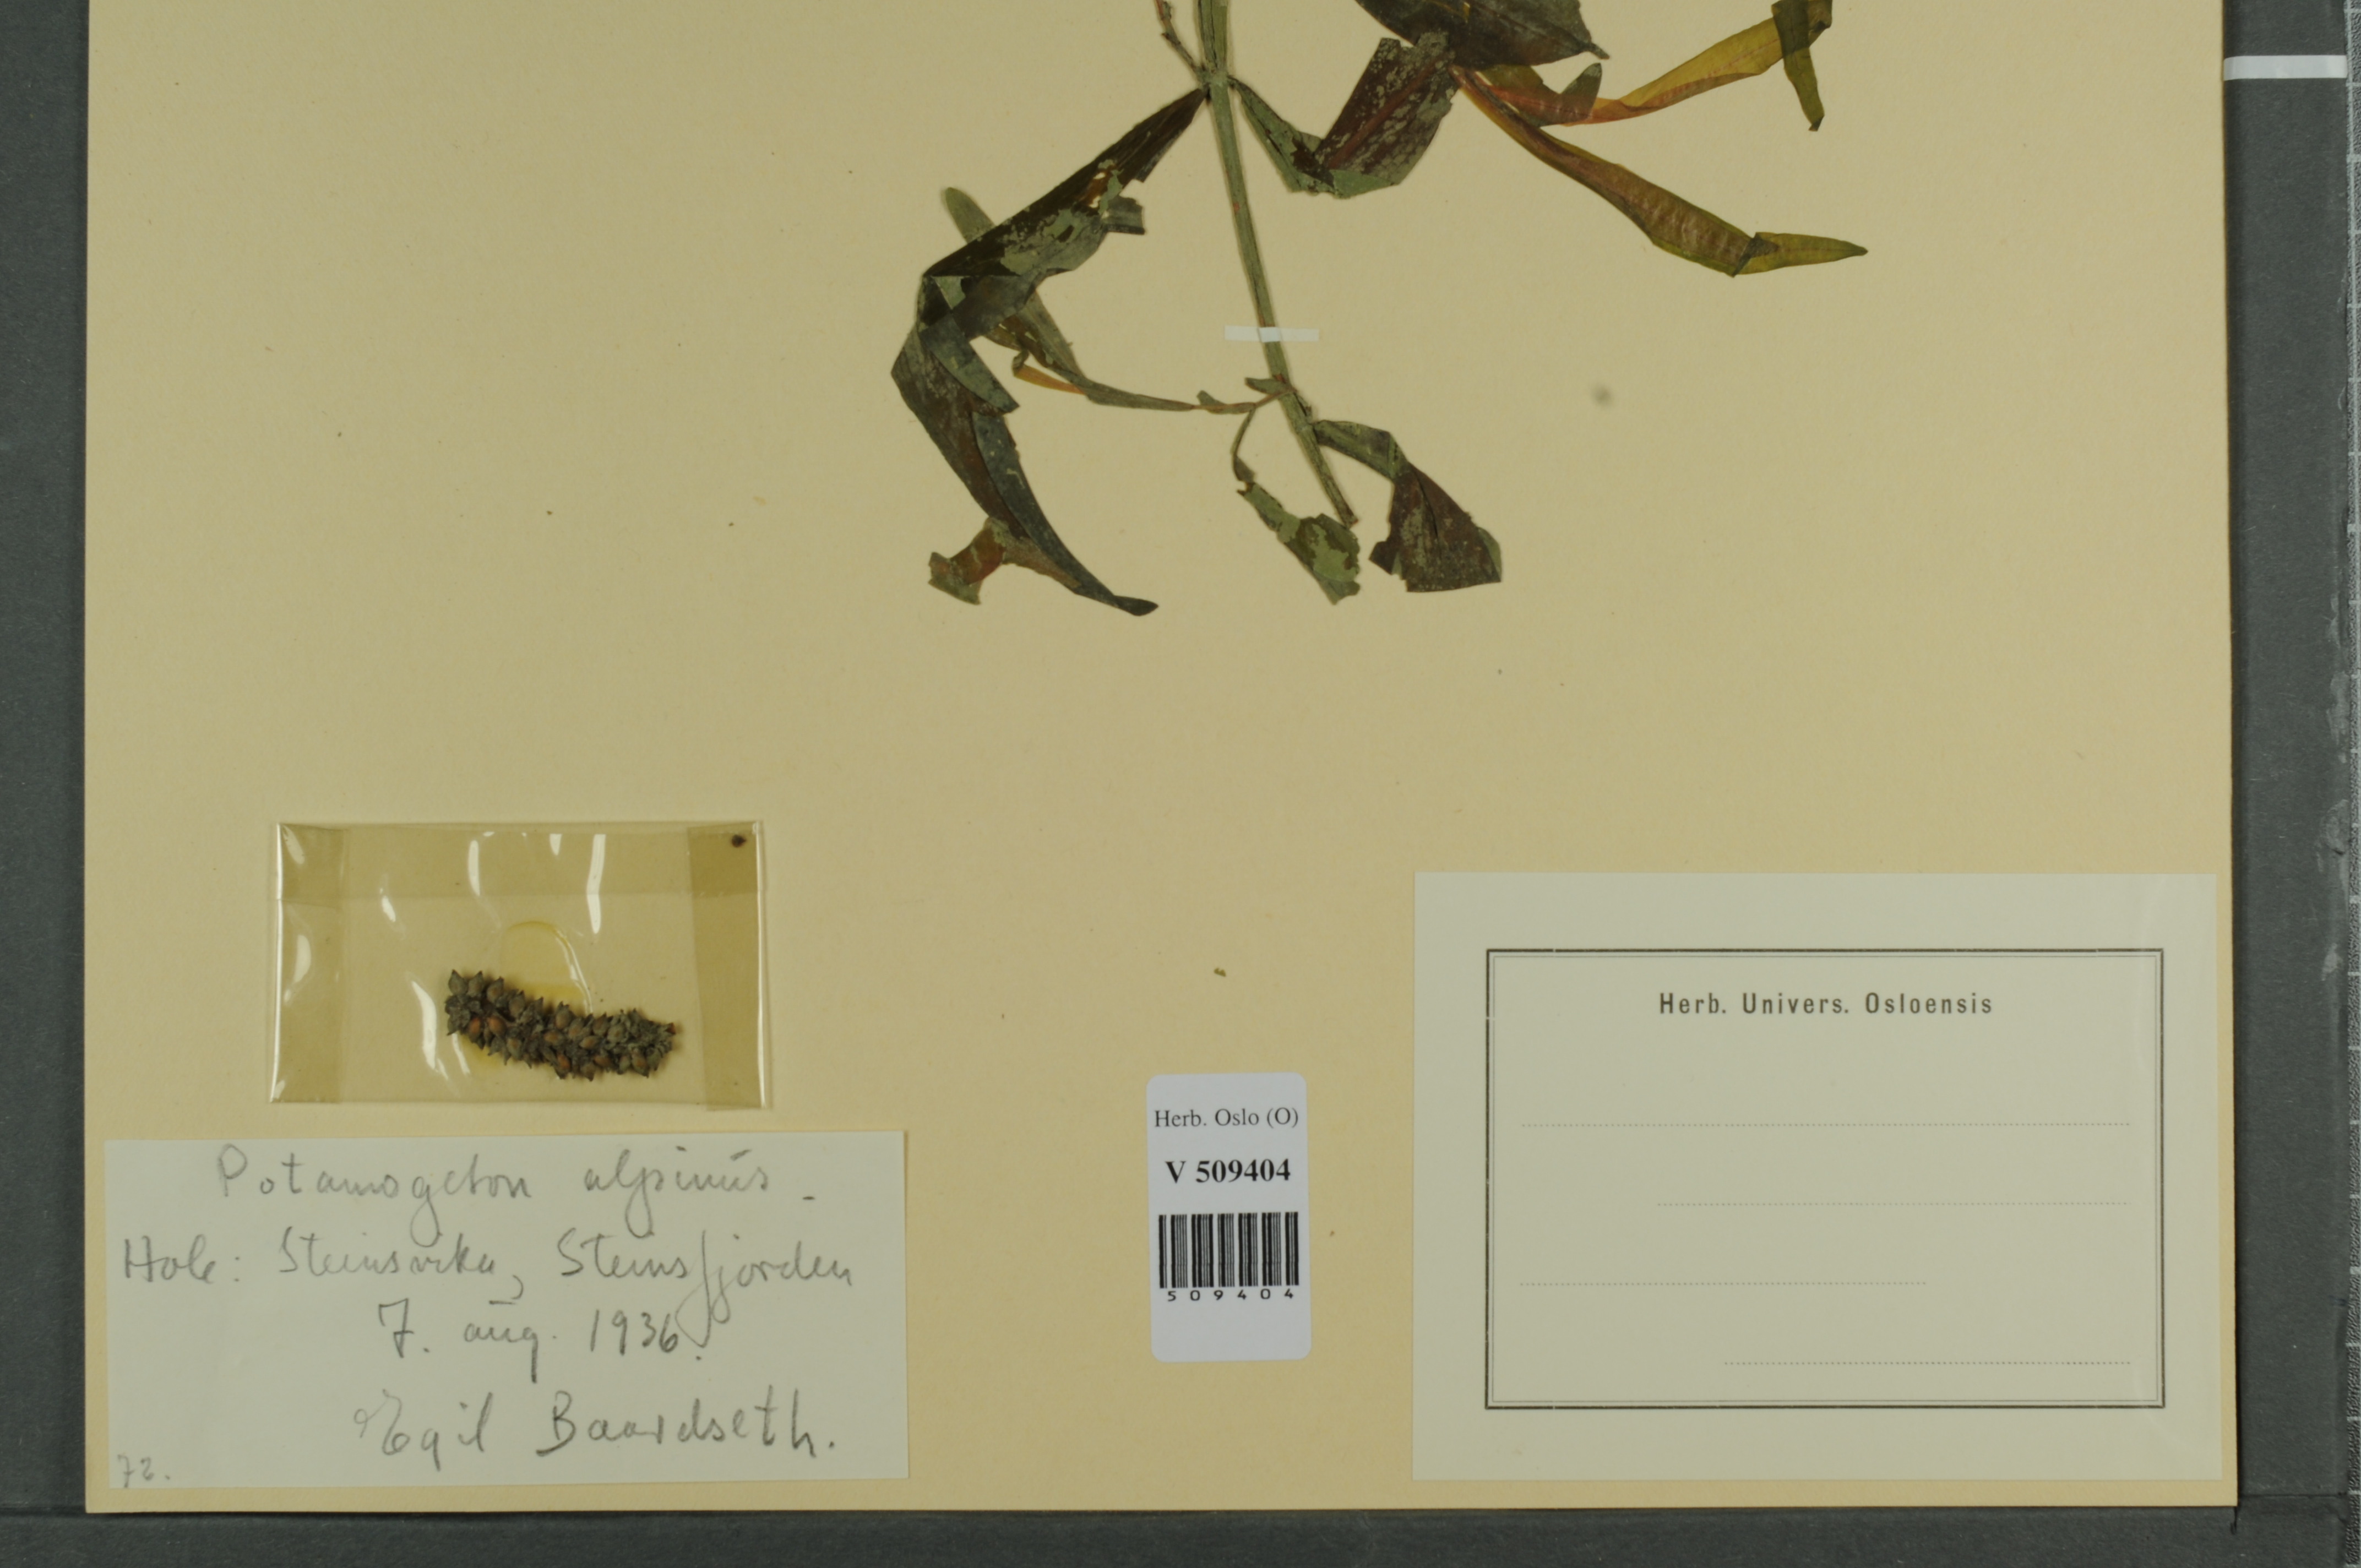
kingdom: Plantae
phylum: Tracheophyta
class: Liliopsida
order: Alismatales
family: Potamogetonaceae
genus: Potamogeton
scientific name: Potamogeton alpinus
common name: Red pondweed
